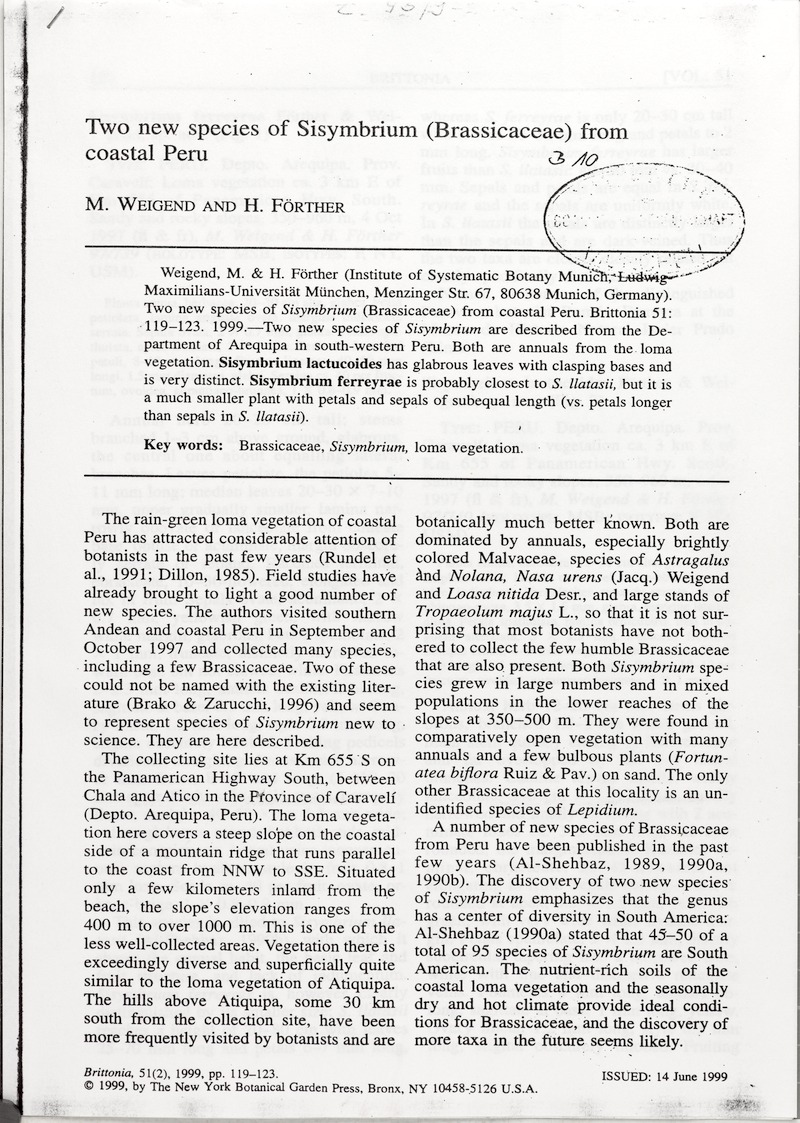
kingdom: Plantae
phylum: Tracheophyta
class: Magnoliopsida
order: Brassicales
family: Brassicaceae
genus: Mostacillastrum
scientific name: Mostacillastrum ferreyrae
